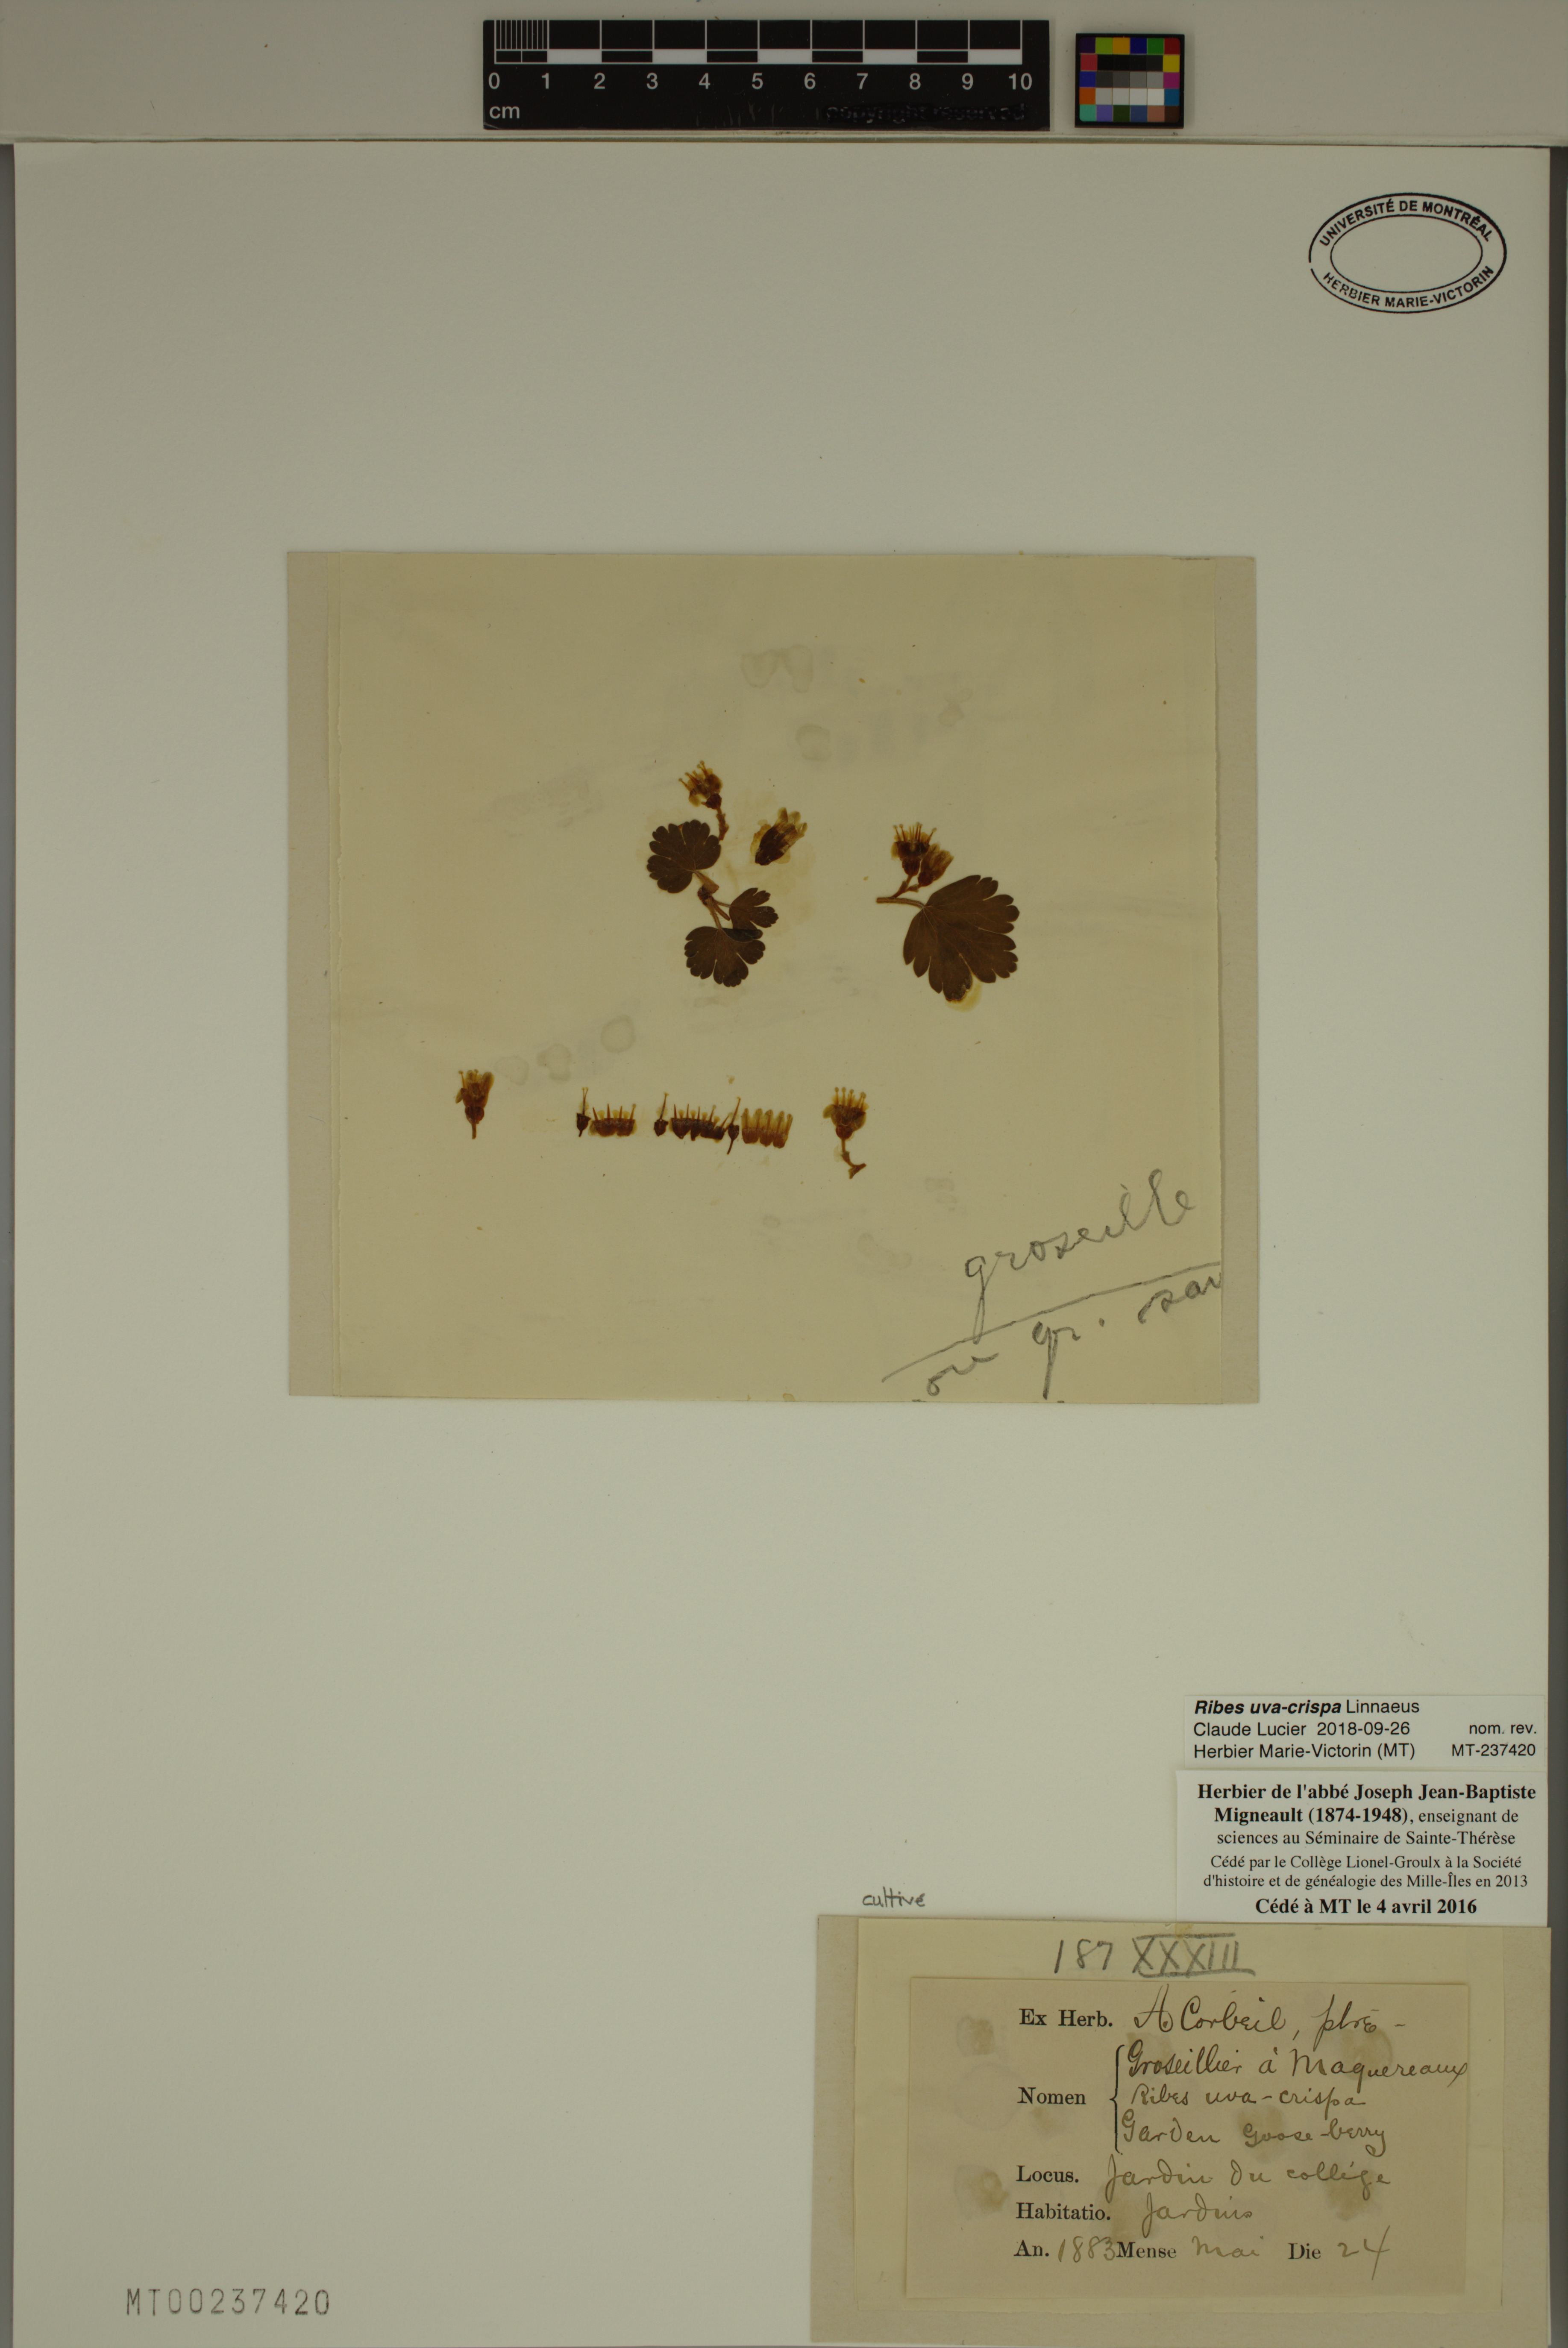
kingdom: Plantae
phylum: Tracheophyta
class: Magnoliopsida
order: Saxifragales
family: Grossulariaceae
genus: Ribes
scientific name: Ribes uva-crispa
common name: Gooseberry
